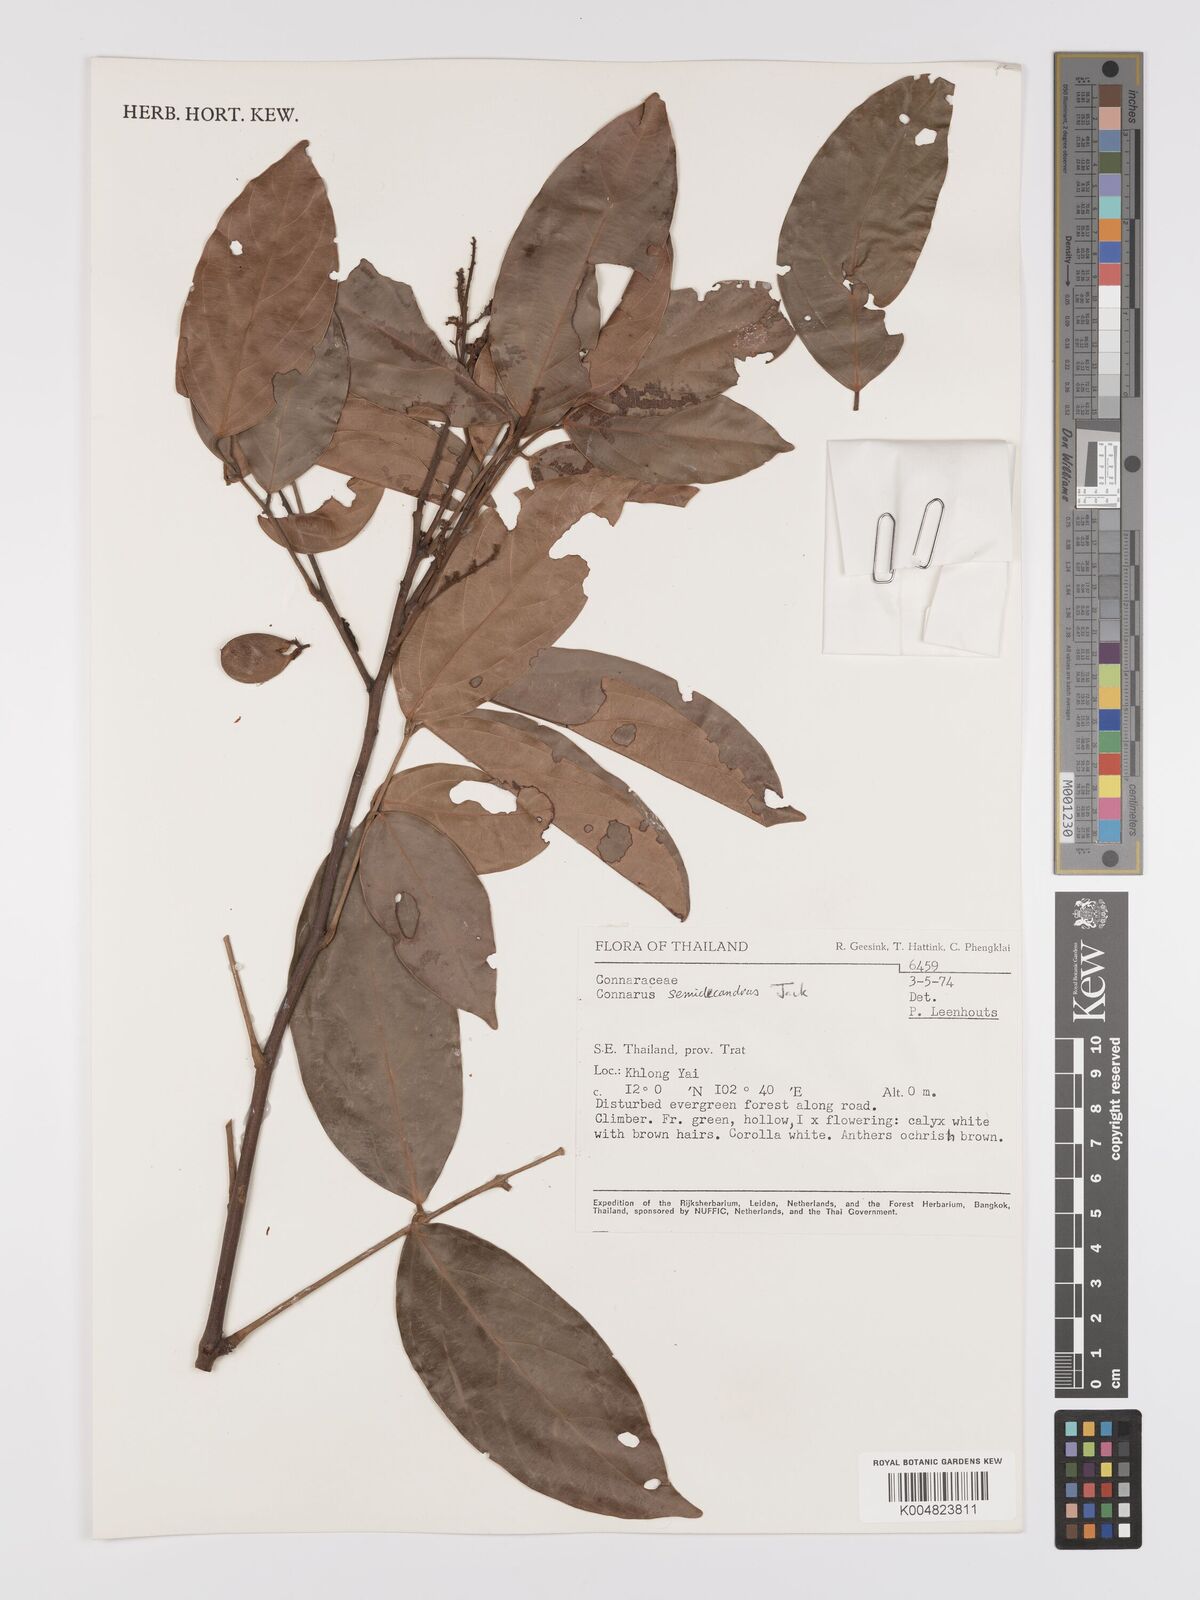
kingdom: Plantae
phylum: Tracheophyta
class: Magnoliopsida
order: Oxalidales
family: Connaraceae
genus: Connarus
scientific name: Connarus semidecandrus
